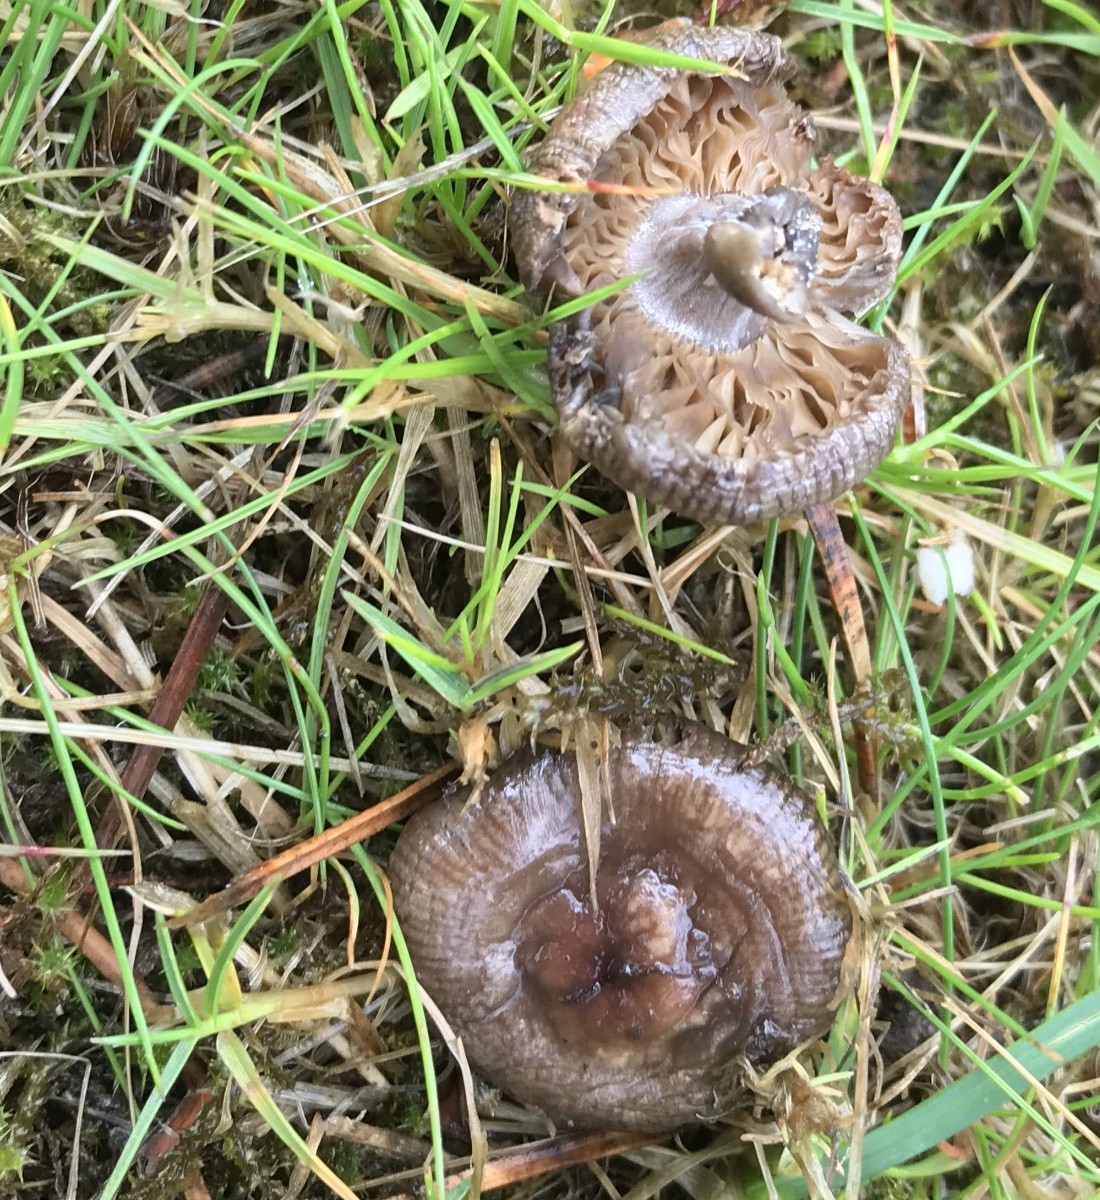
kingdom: Fungi
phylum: Basidiomycota
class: Agaricomycetes
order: Agaricales
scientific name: Agaricales
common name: champignonordenen
